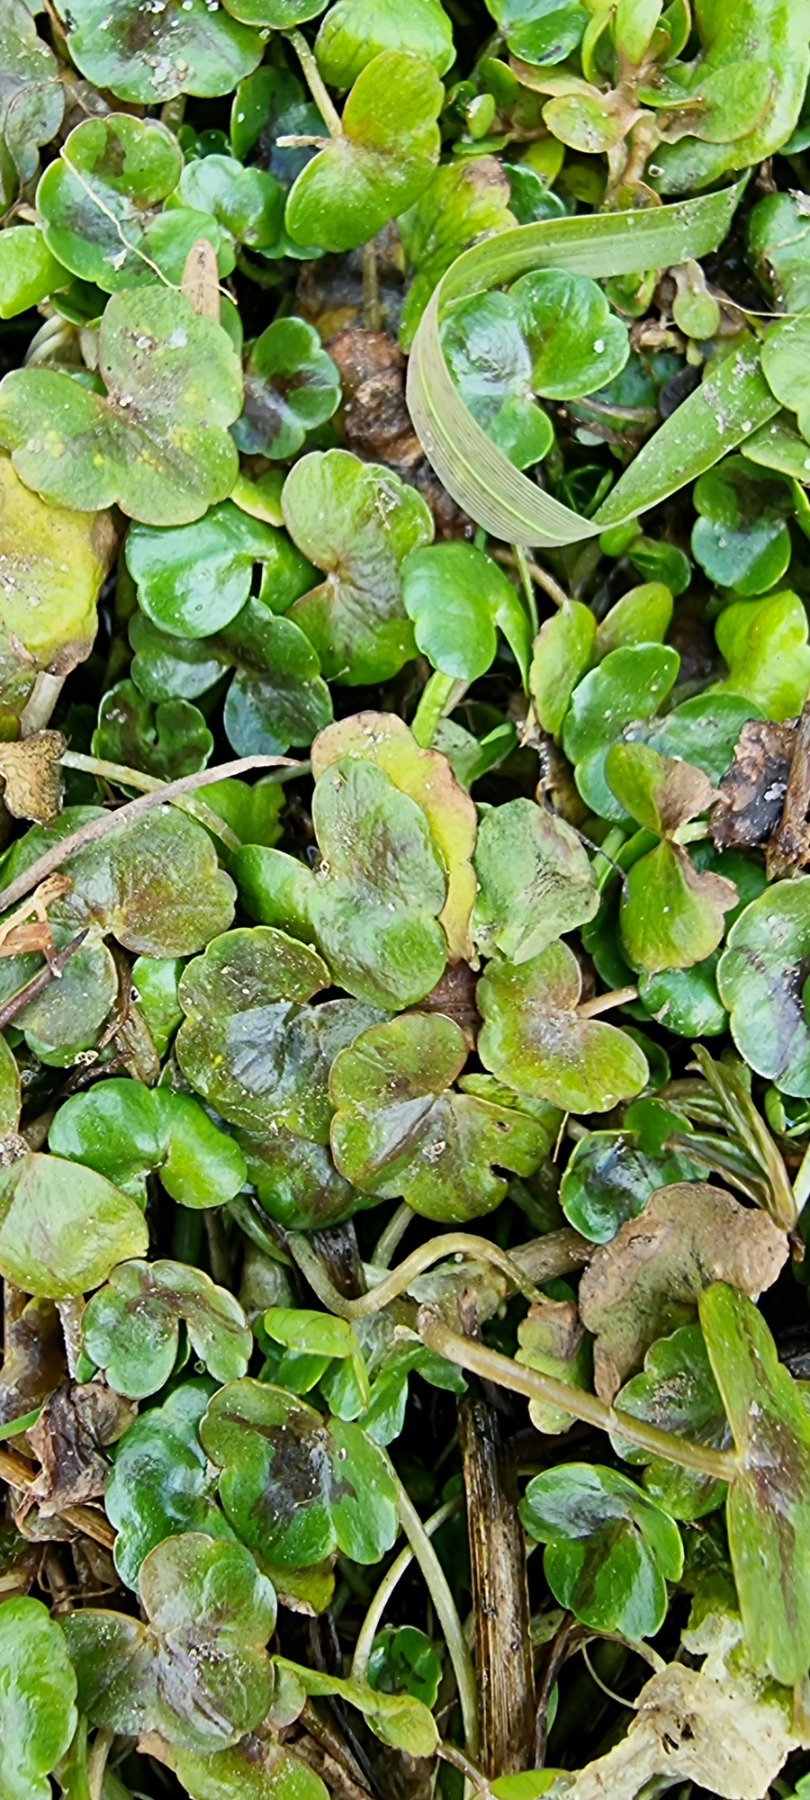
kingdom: Plantae
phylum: Tracheophyta
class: Magnoliopsida
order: Ranunculales
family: Ranunculaceae
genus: Ranunculus
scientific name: Ranunculus hederaceus
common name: Vedbend-vandranunkel
